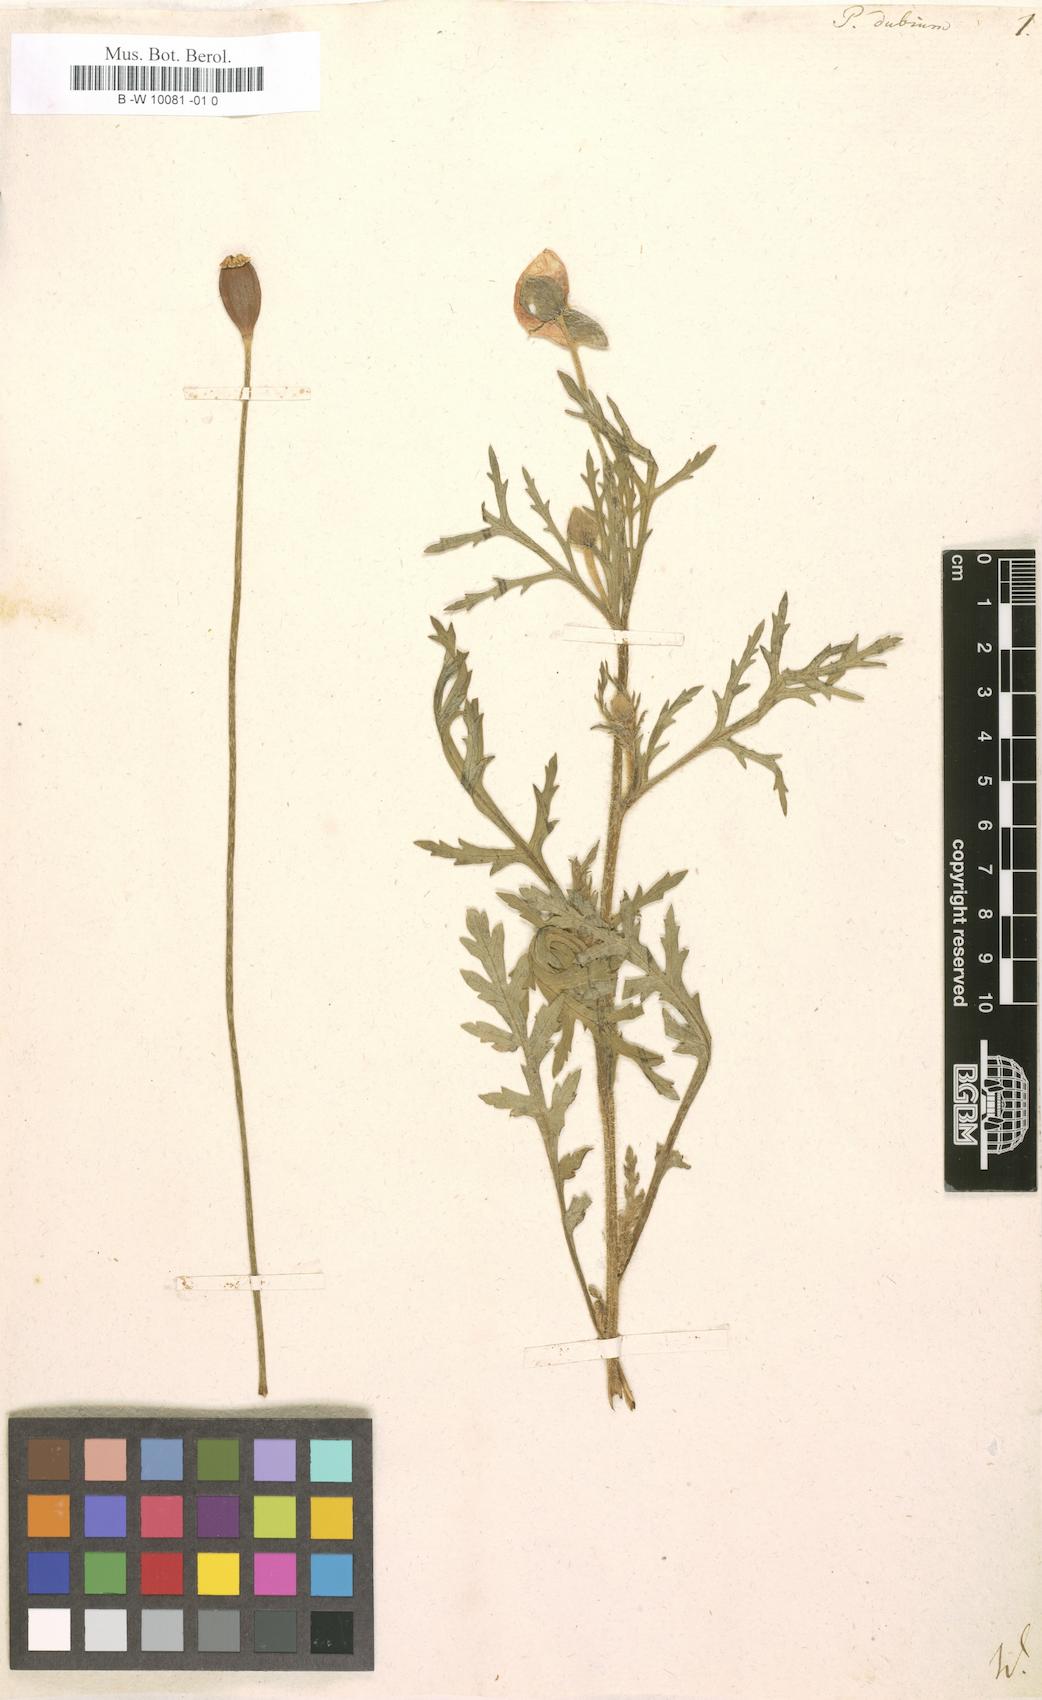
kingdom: Plantae
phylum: Tracheophyta
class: Magnoliopsida
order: Ranunculales
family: Papaveraceae
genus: Papaver
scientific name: Papaver dubium
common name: Long-headed poppy
